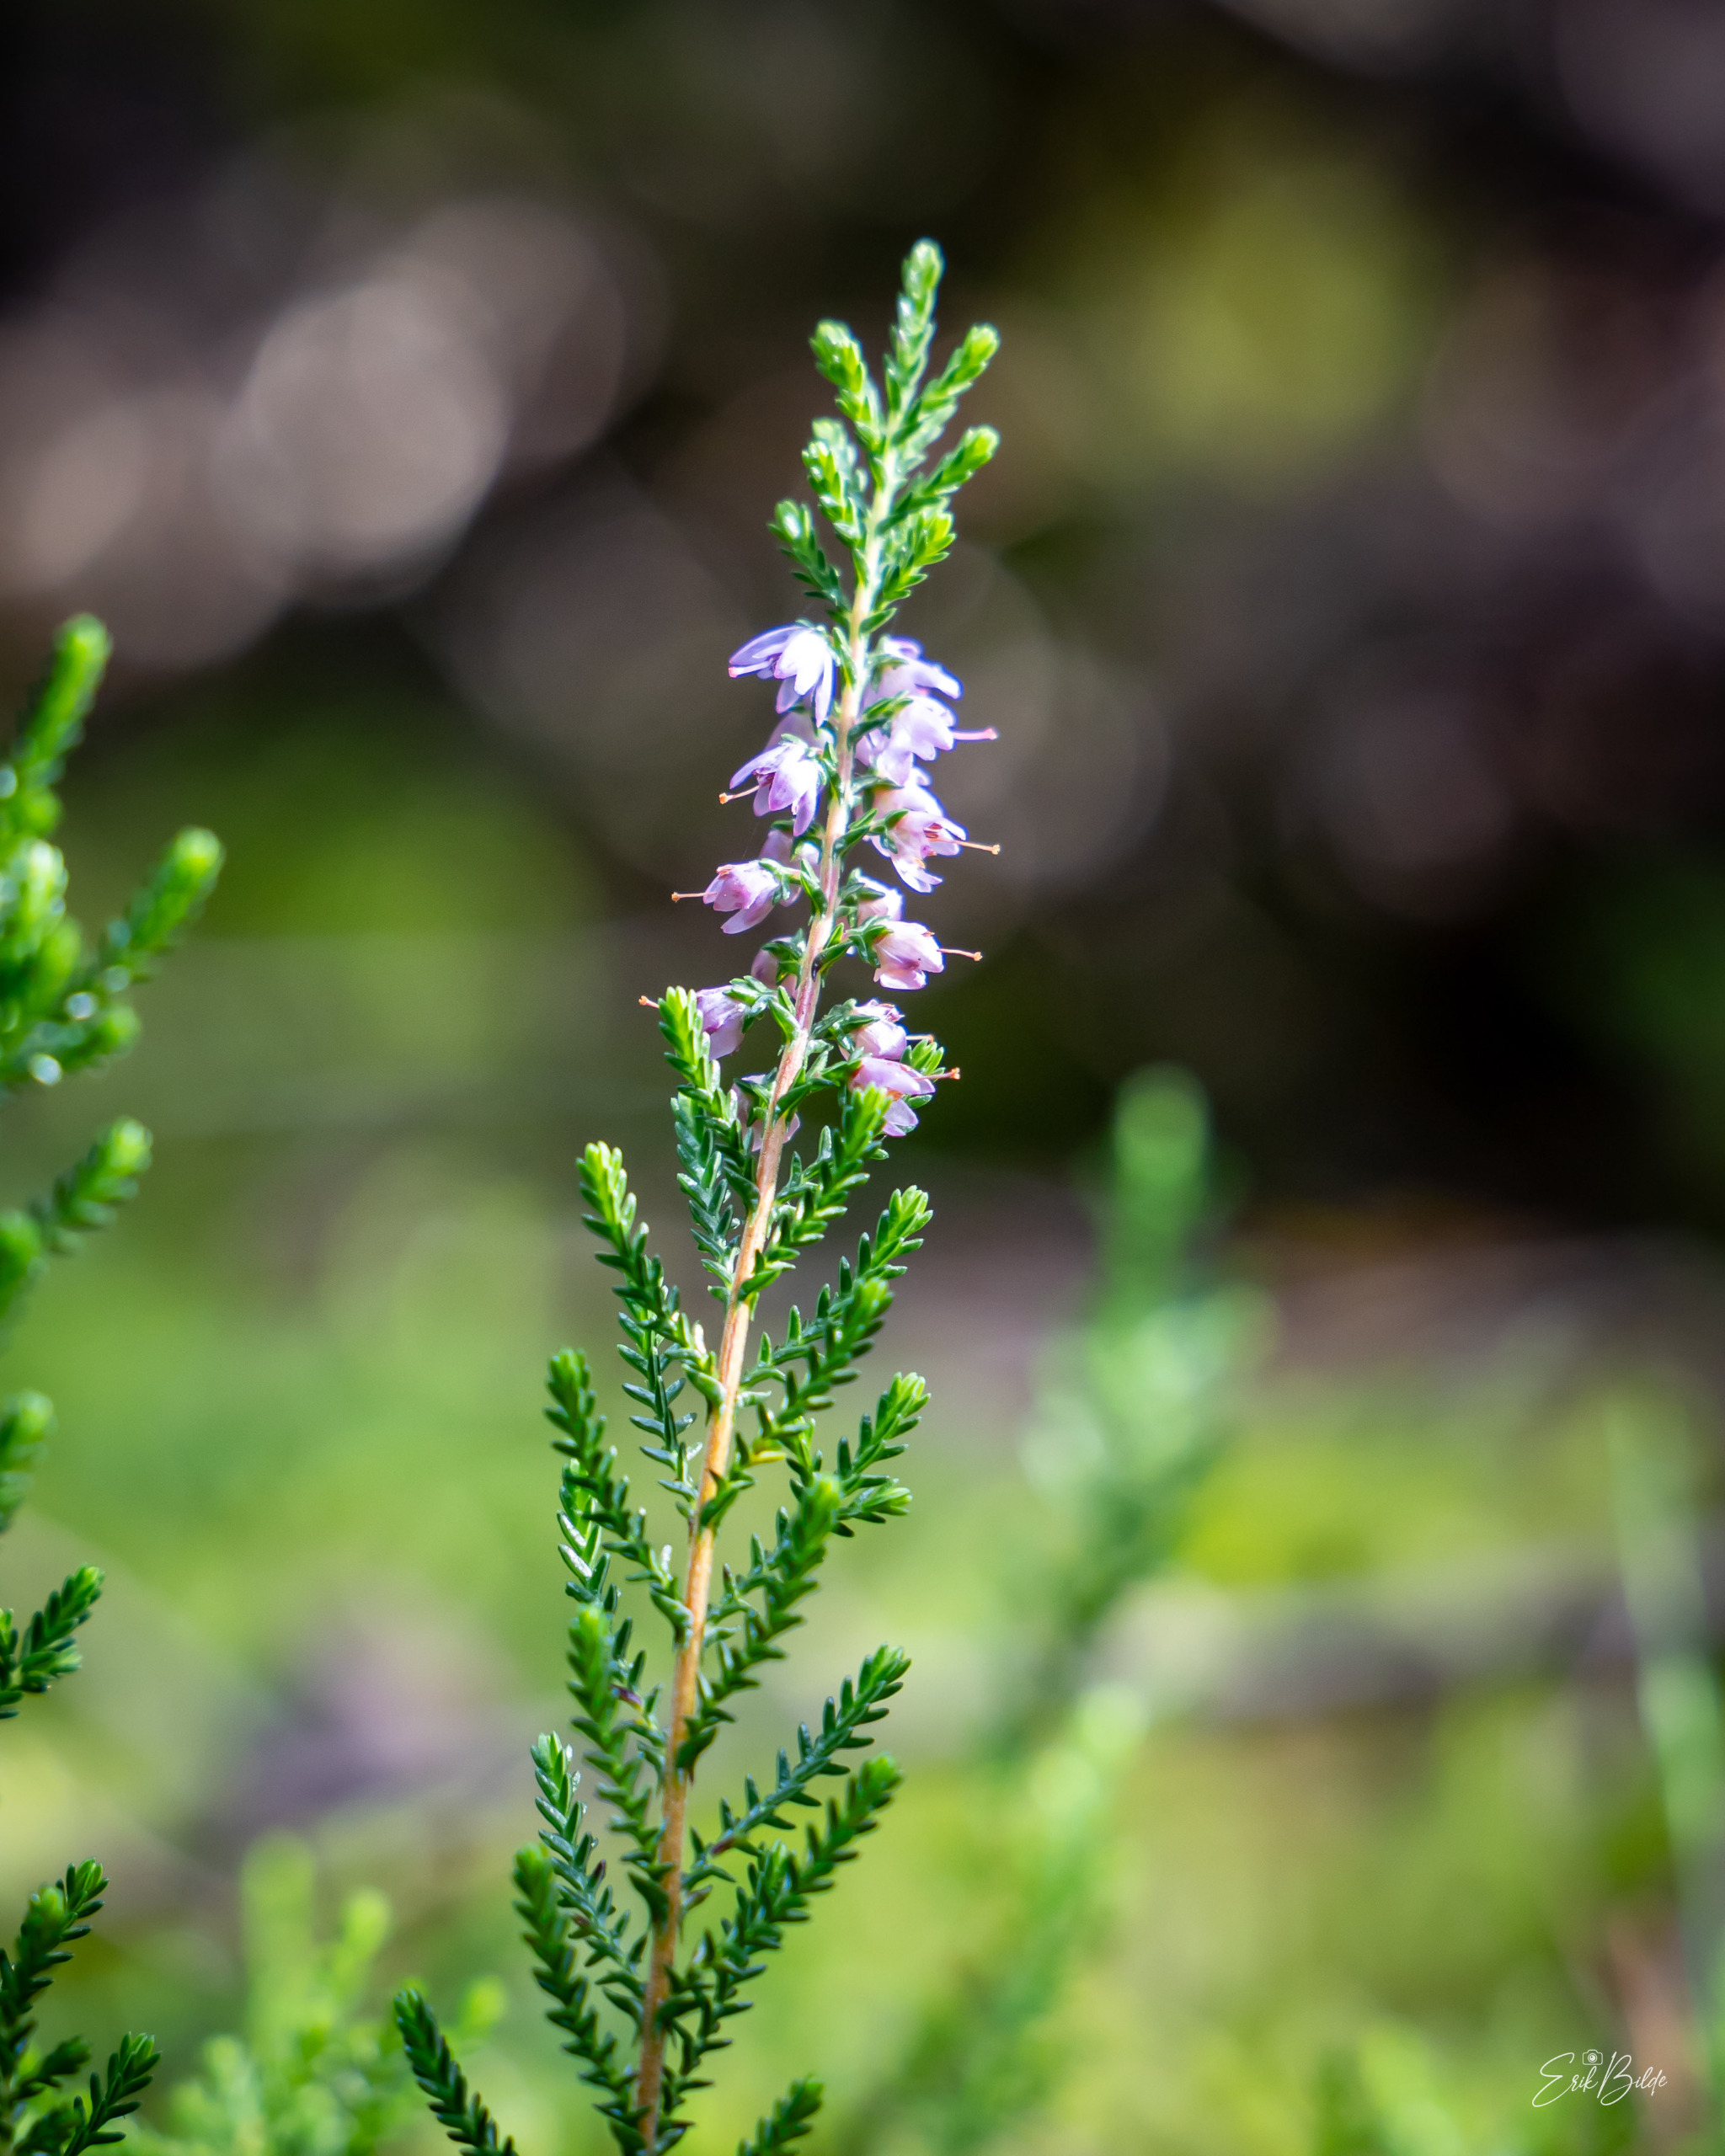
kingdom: Plantae
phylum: Tracheophyta
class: Magnoliopsida
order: Ericales
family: Ericaceae
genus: Calluna
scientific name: Calluna vulgaris
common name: Hedelyng
